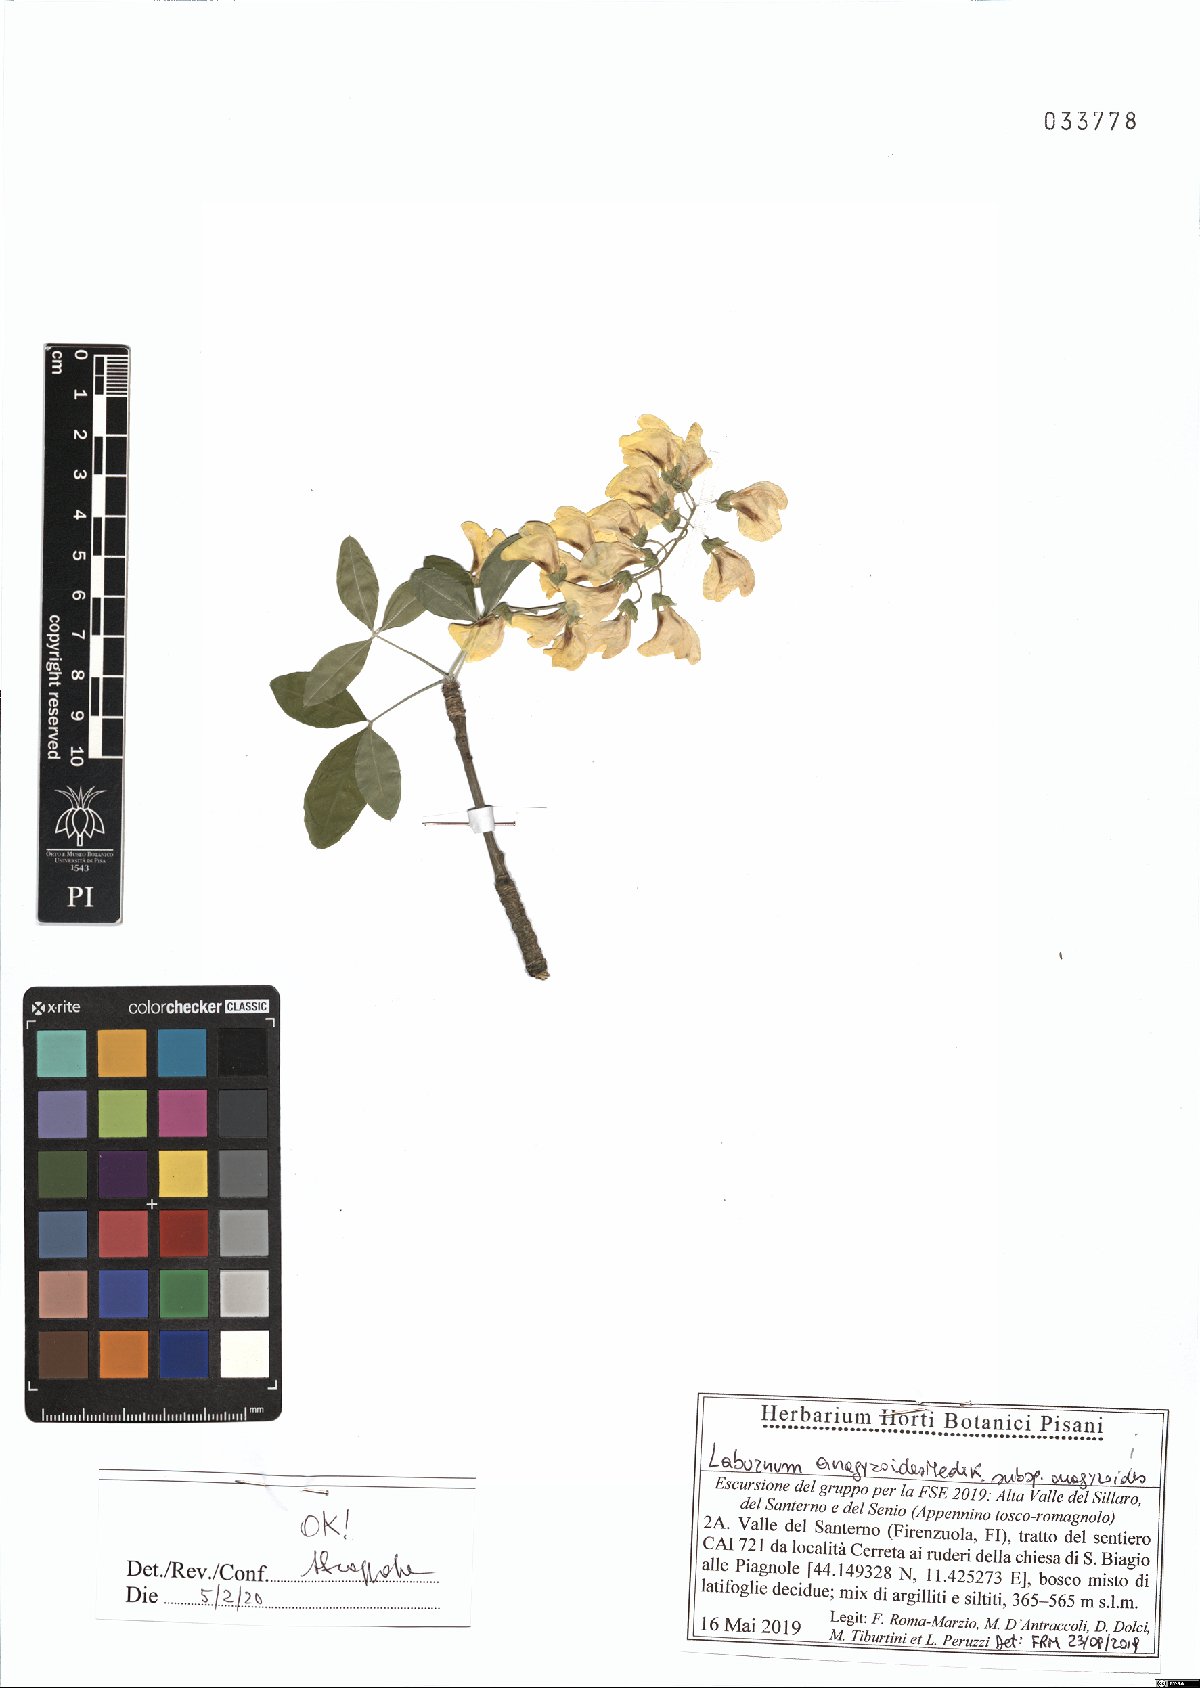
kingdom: Plantae
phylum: Tracheophyta
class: Magnoliopsida
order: Fabales
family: Fabaceae
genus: Laburnum
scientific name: Laburnum anagyroides
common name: Laburnum
